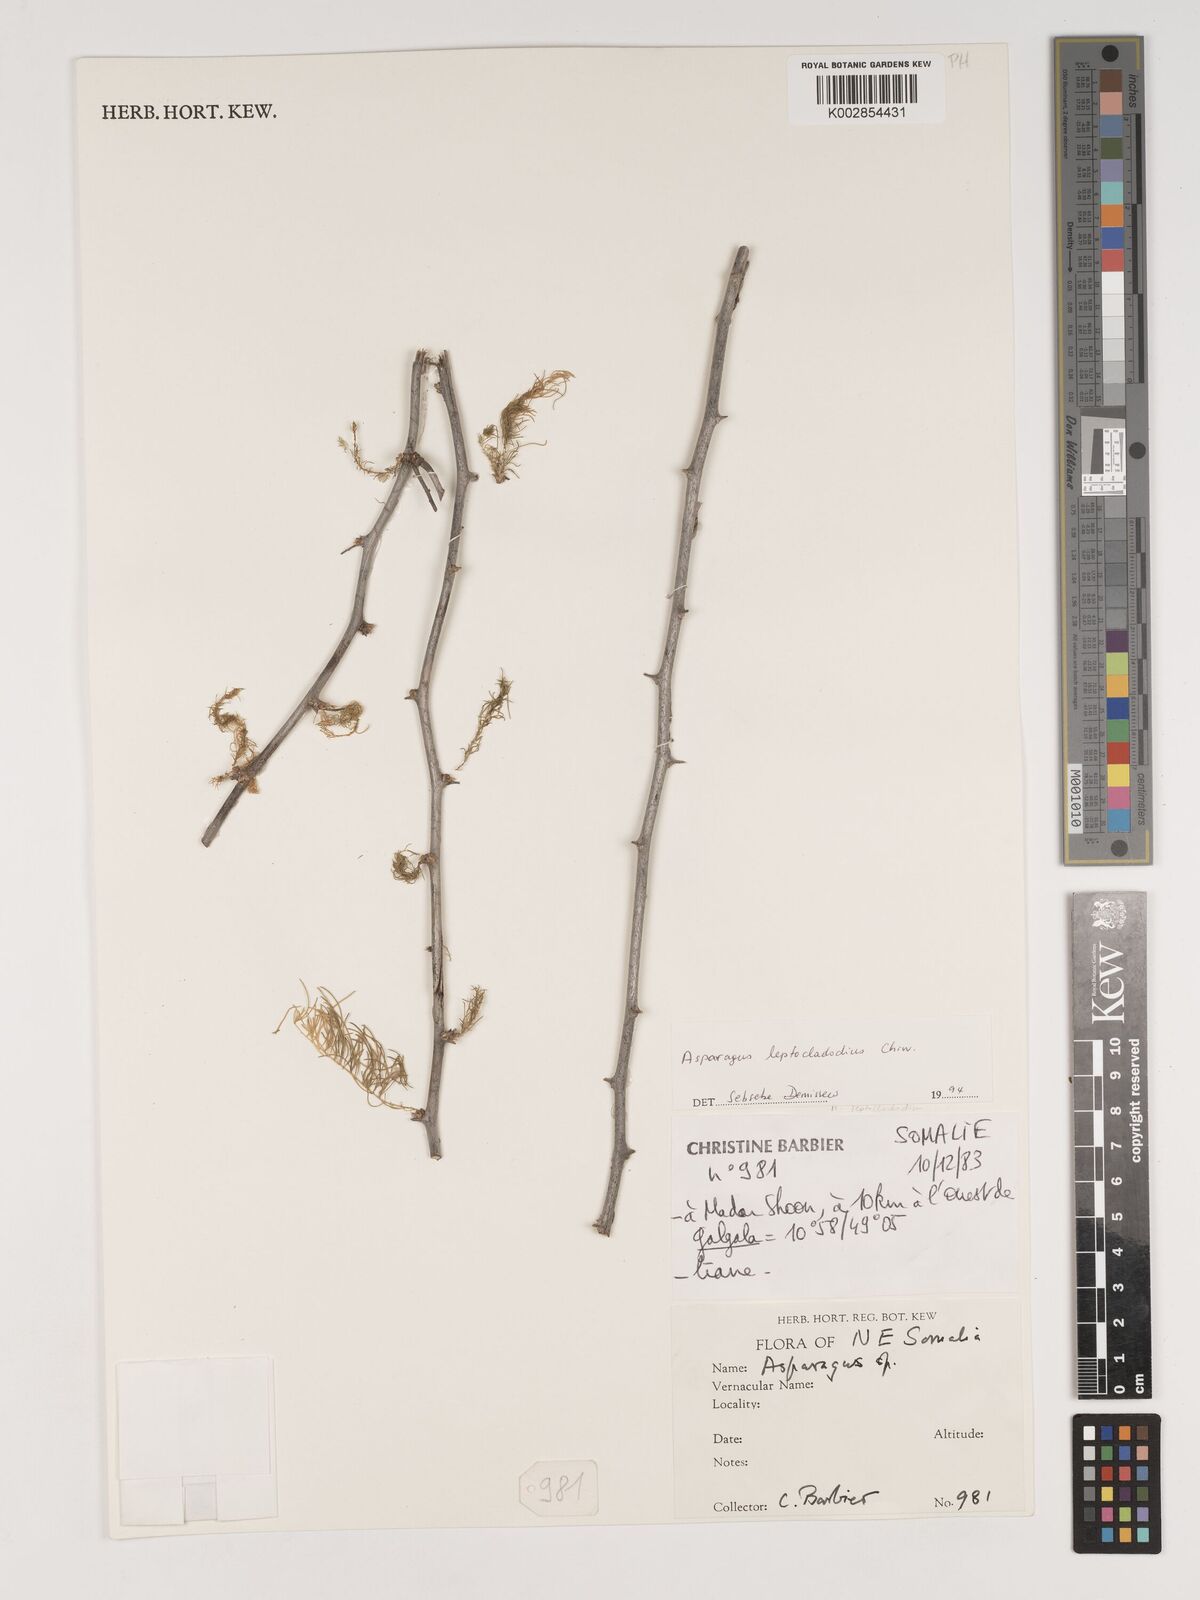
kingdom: Plantae
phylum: Tracheophyta
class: Liliopsida
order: Asparagales
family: Asparagaceae
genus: Asparagus
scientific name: Asparagus leptocladodius
